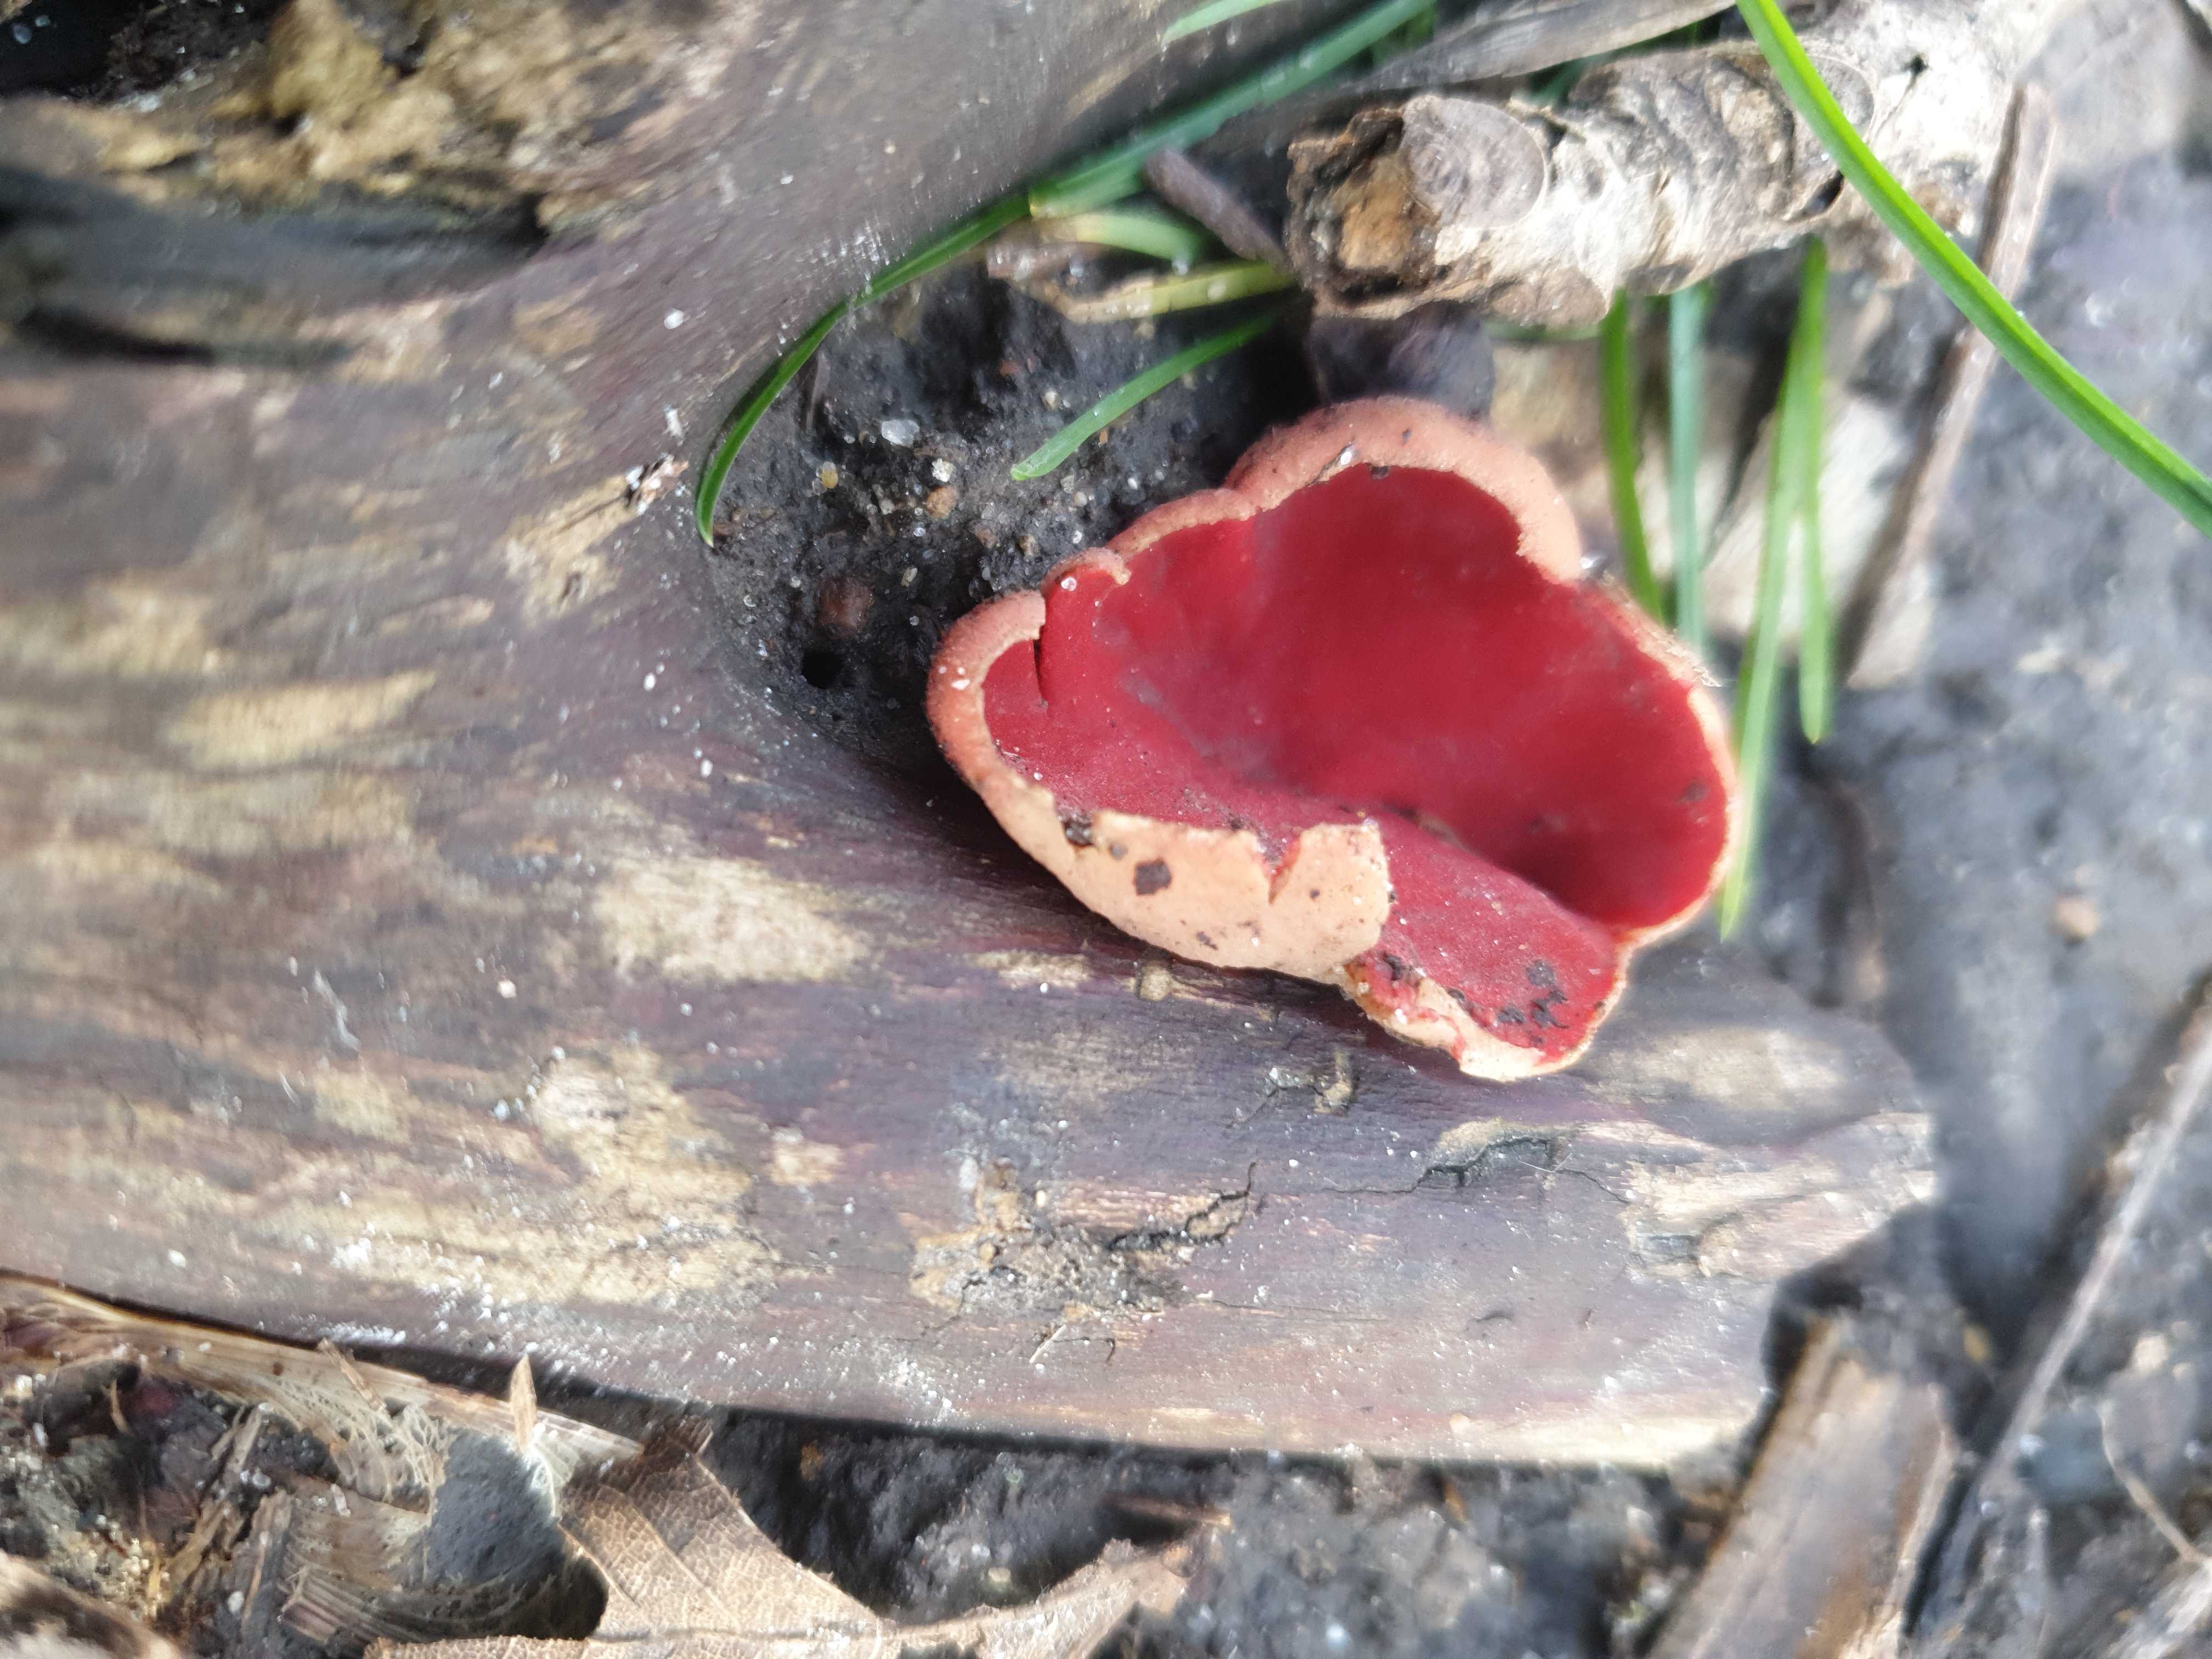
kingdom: Fungi
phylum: Ascomycota
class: Pezizomycetes
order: Pezizales
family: Sarcoscyphaceae
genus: Sarcoscypha
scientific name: Sarcoscypha
